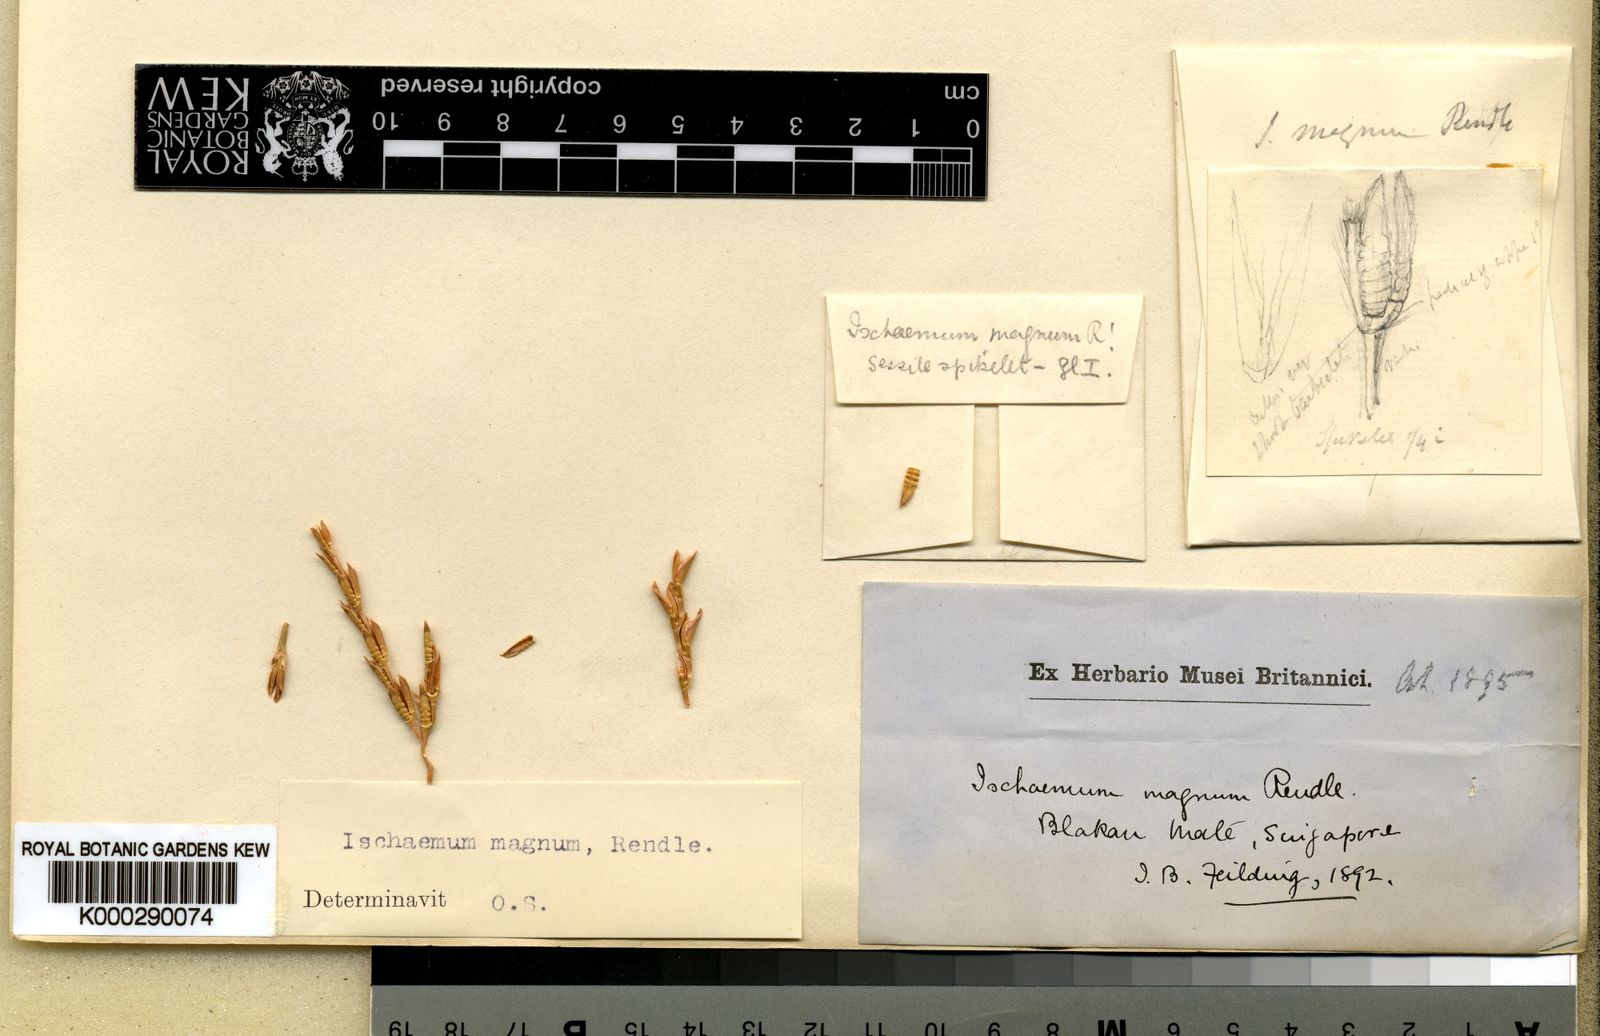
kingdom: Plantae
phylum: Tracheophyta
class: Liliopsida
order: Poales
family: Poaceae
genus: Ischaemum
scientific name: Ischaemum barbatum
